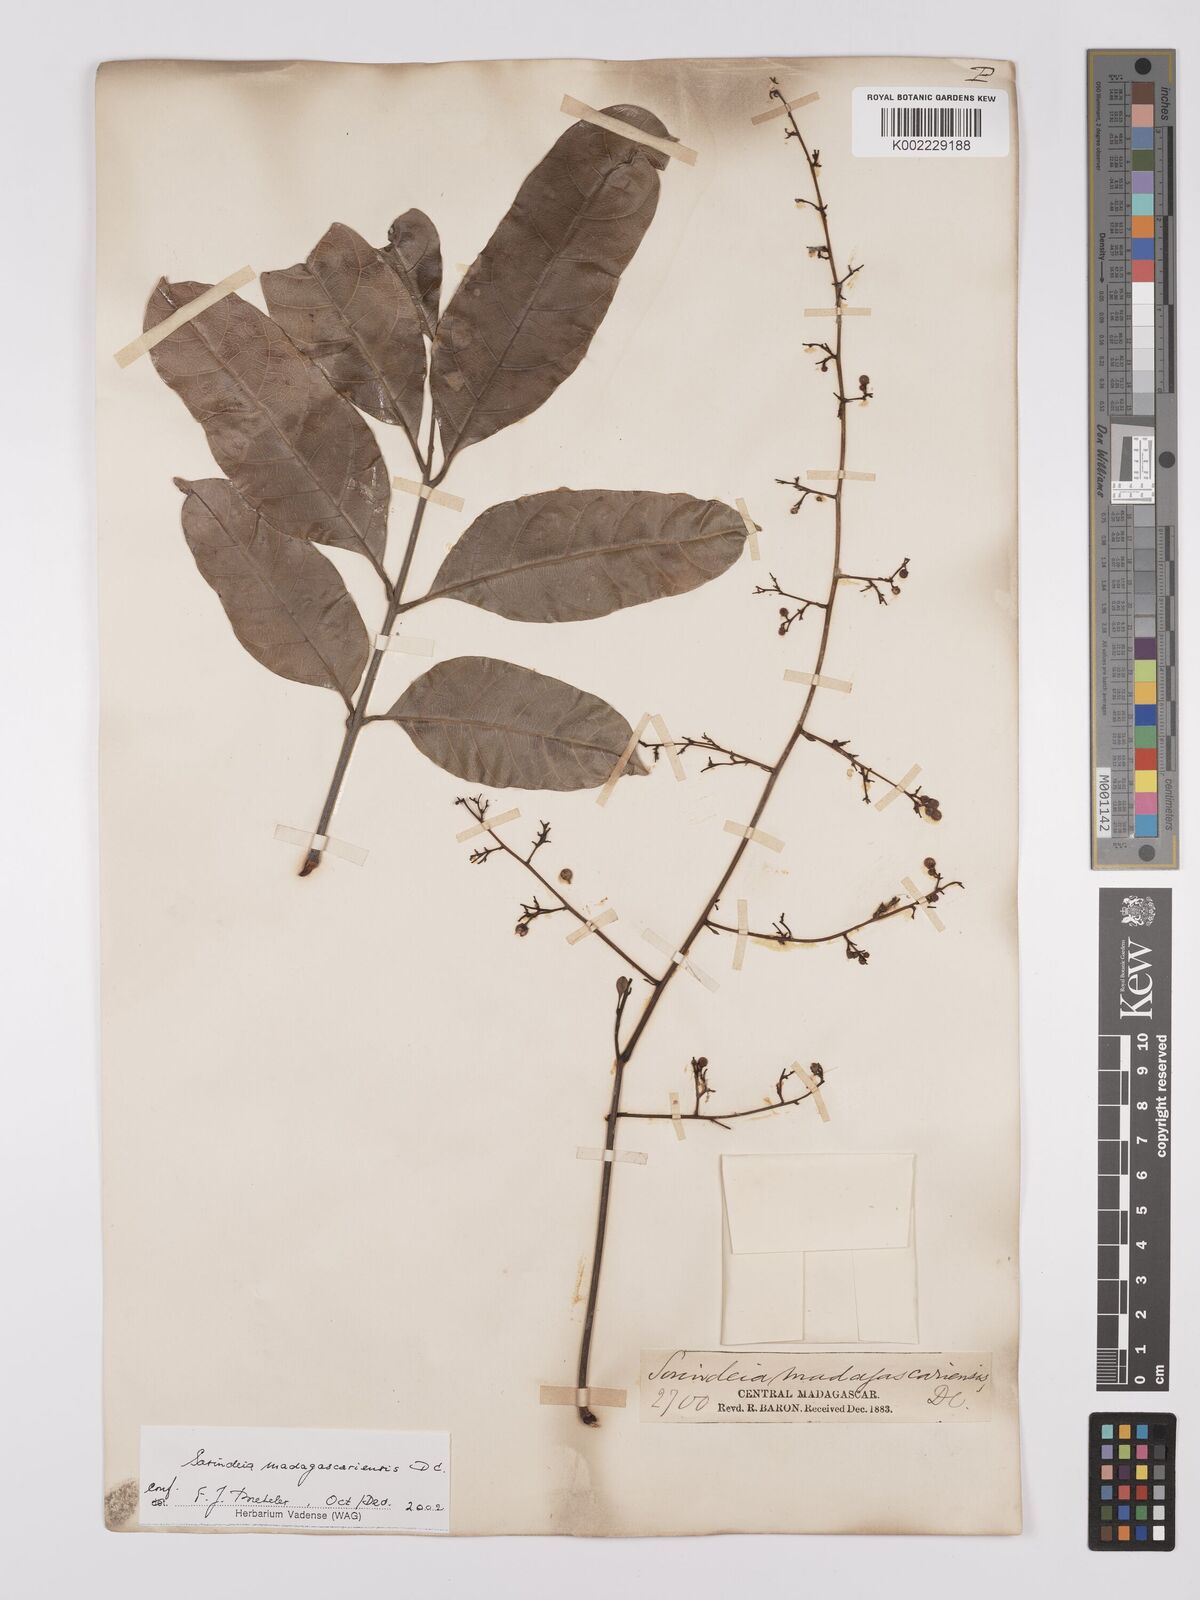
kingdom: Plantae
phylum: Tracheophyta
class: Magnoliopsida
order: Sapindales
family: Anacardiaceae
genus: Sorindeia
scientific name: Sorindeia madagascariensis
